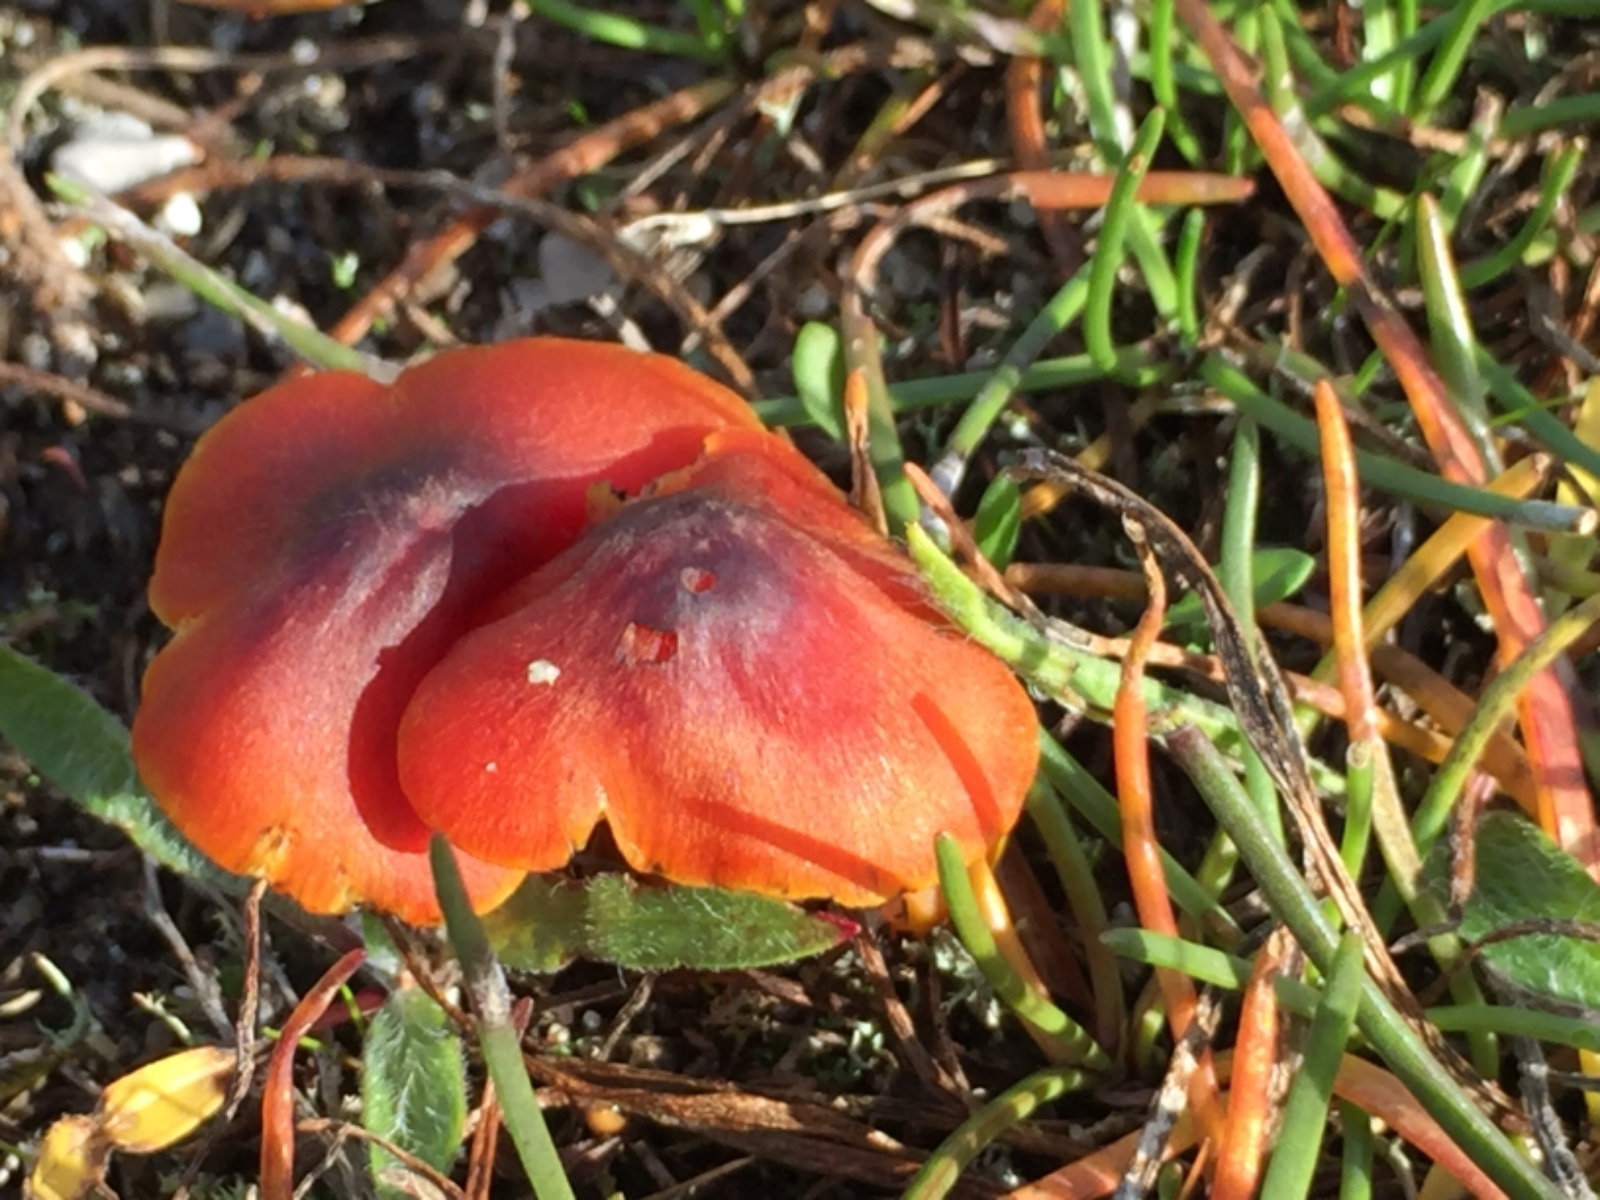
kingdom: Fungi
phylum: Basidiomycota
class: Agaricomycetes
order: Agaricales
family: Hygrophoraceae
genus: Hygrocybe
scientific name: Hygrocybe conica
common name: kegle-vokshat
